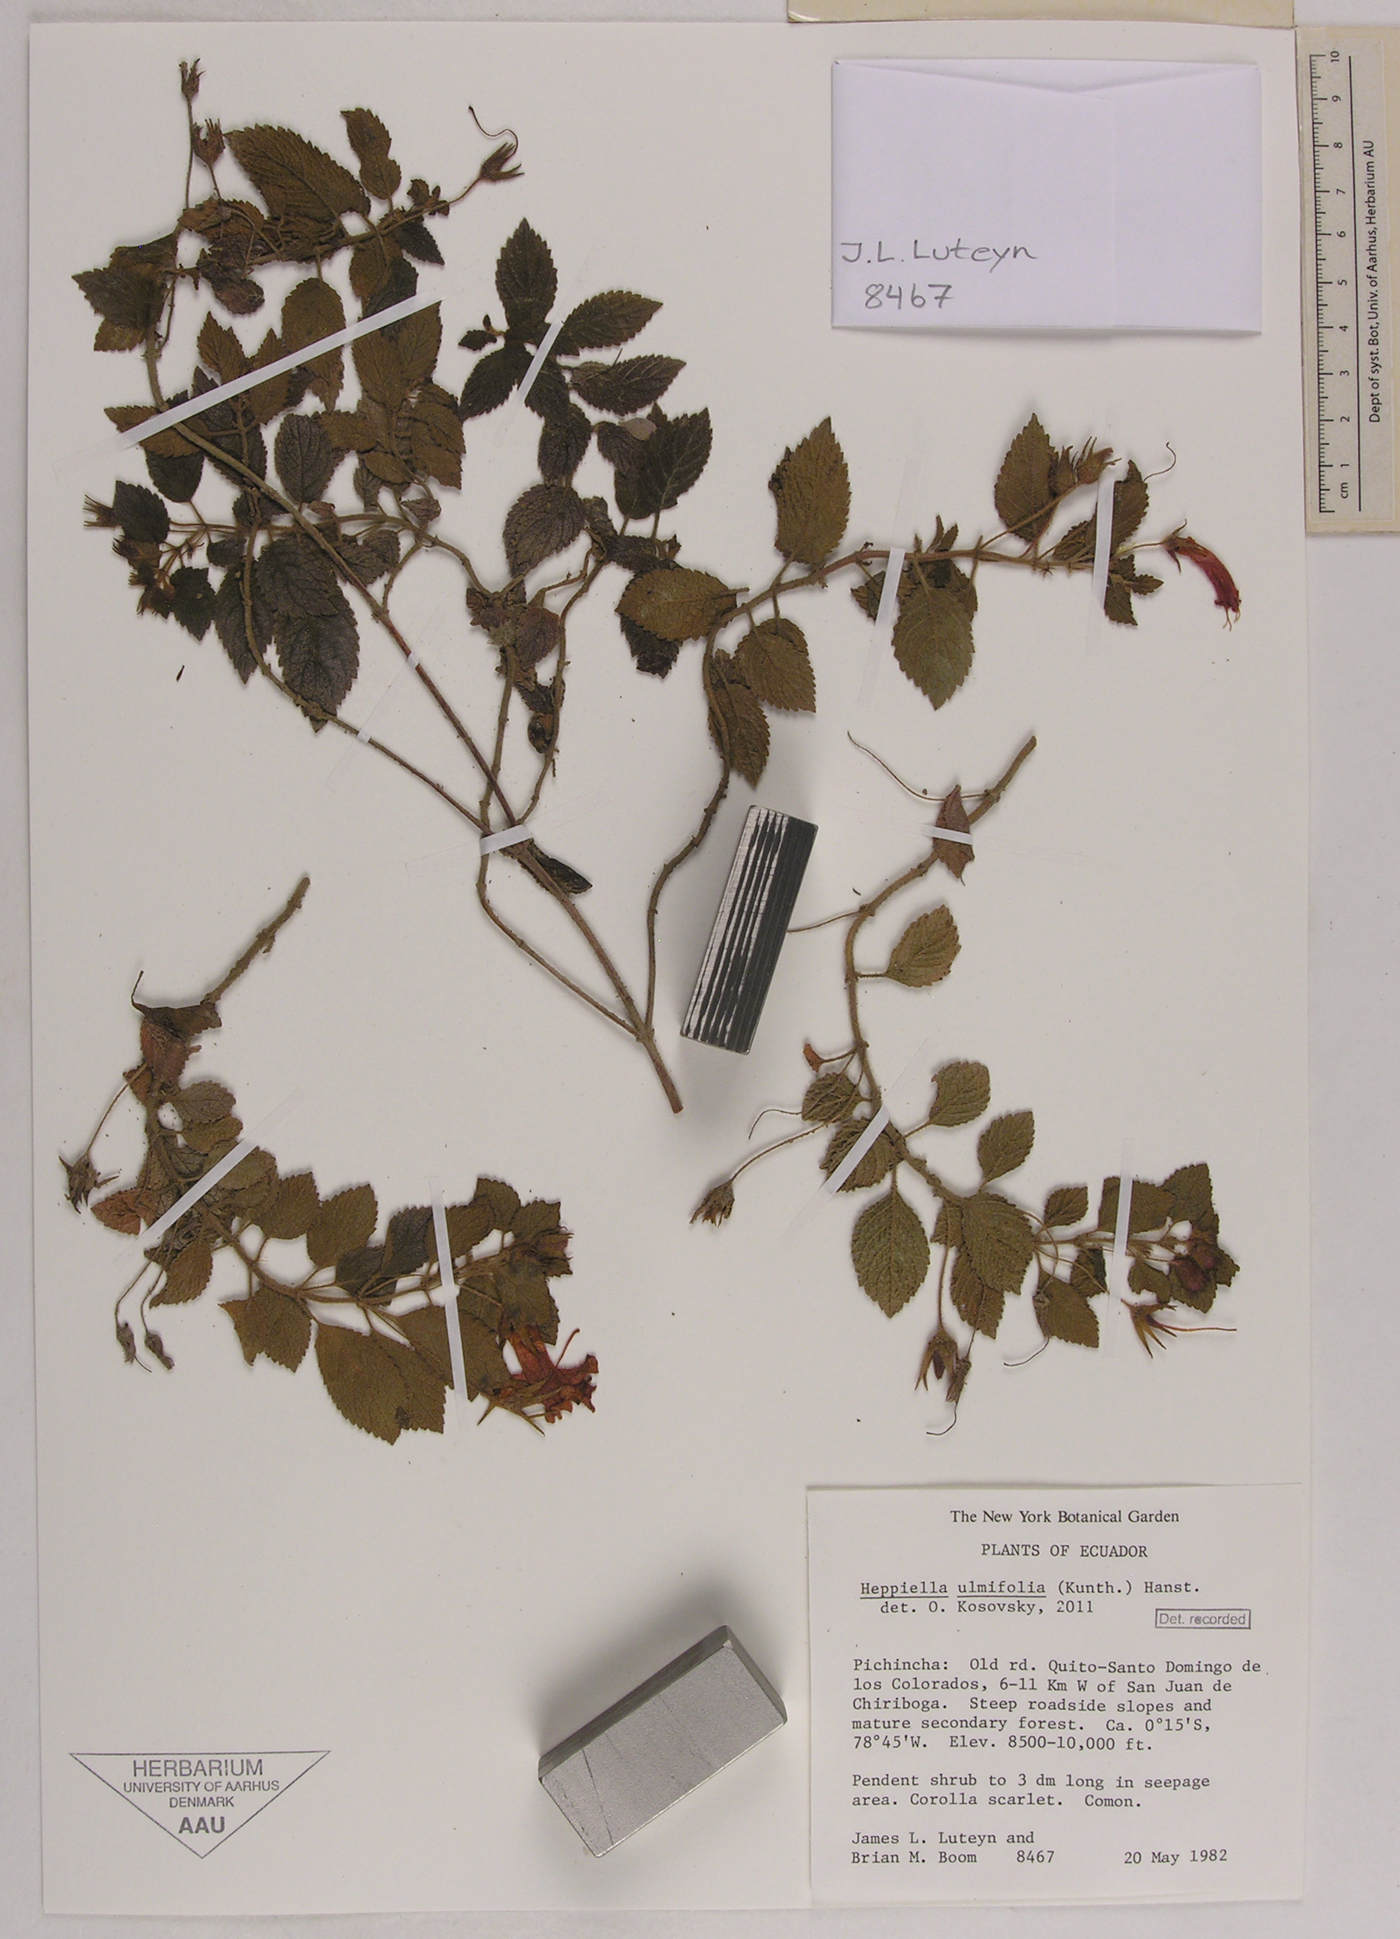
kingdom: Plantae
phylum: Tracheophyta
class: Magnoliopsida
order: Lamiales
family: Gesneriaceae
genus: Heppiella
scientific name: Heppiella ulmifolia
